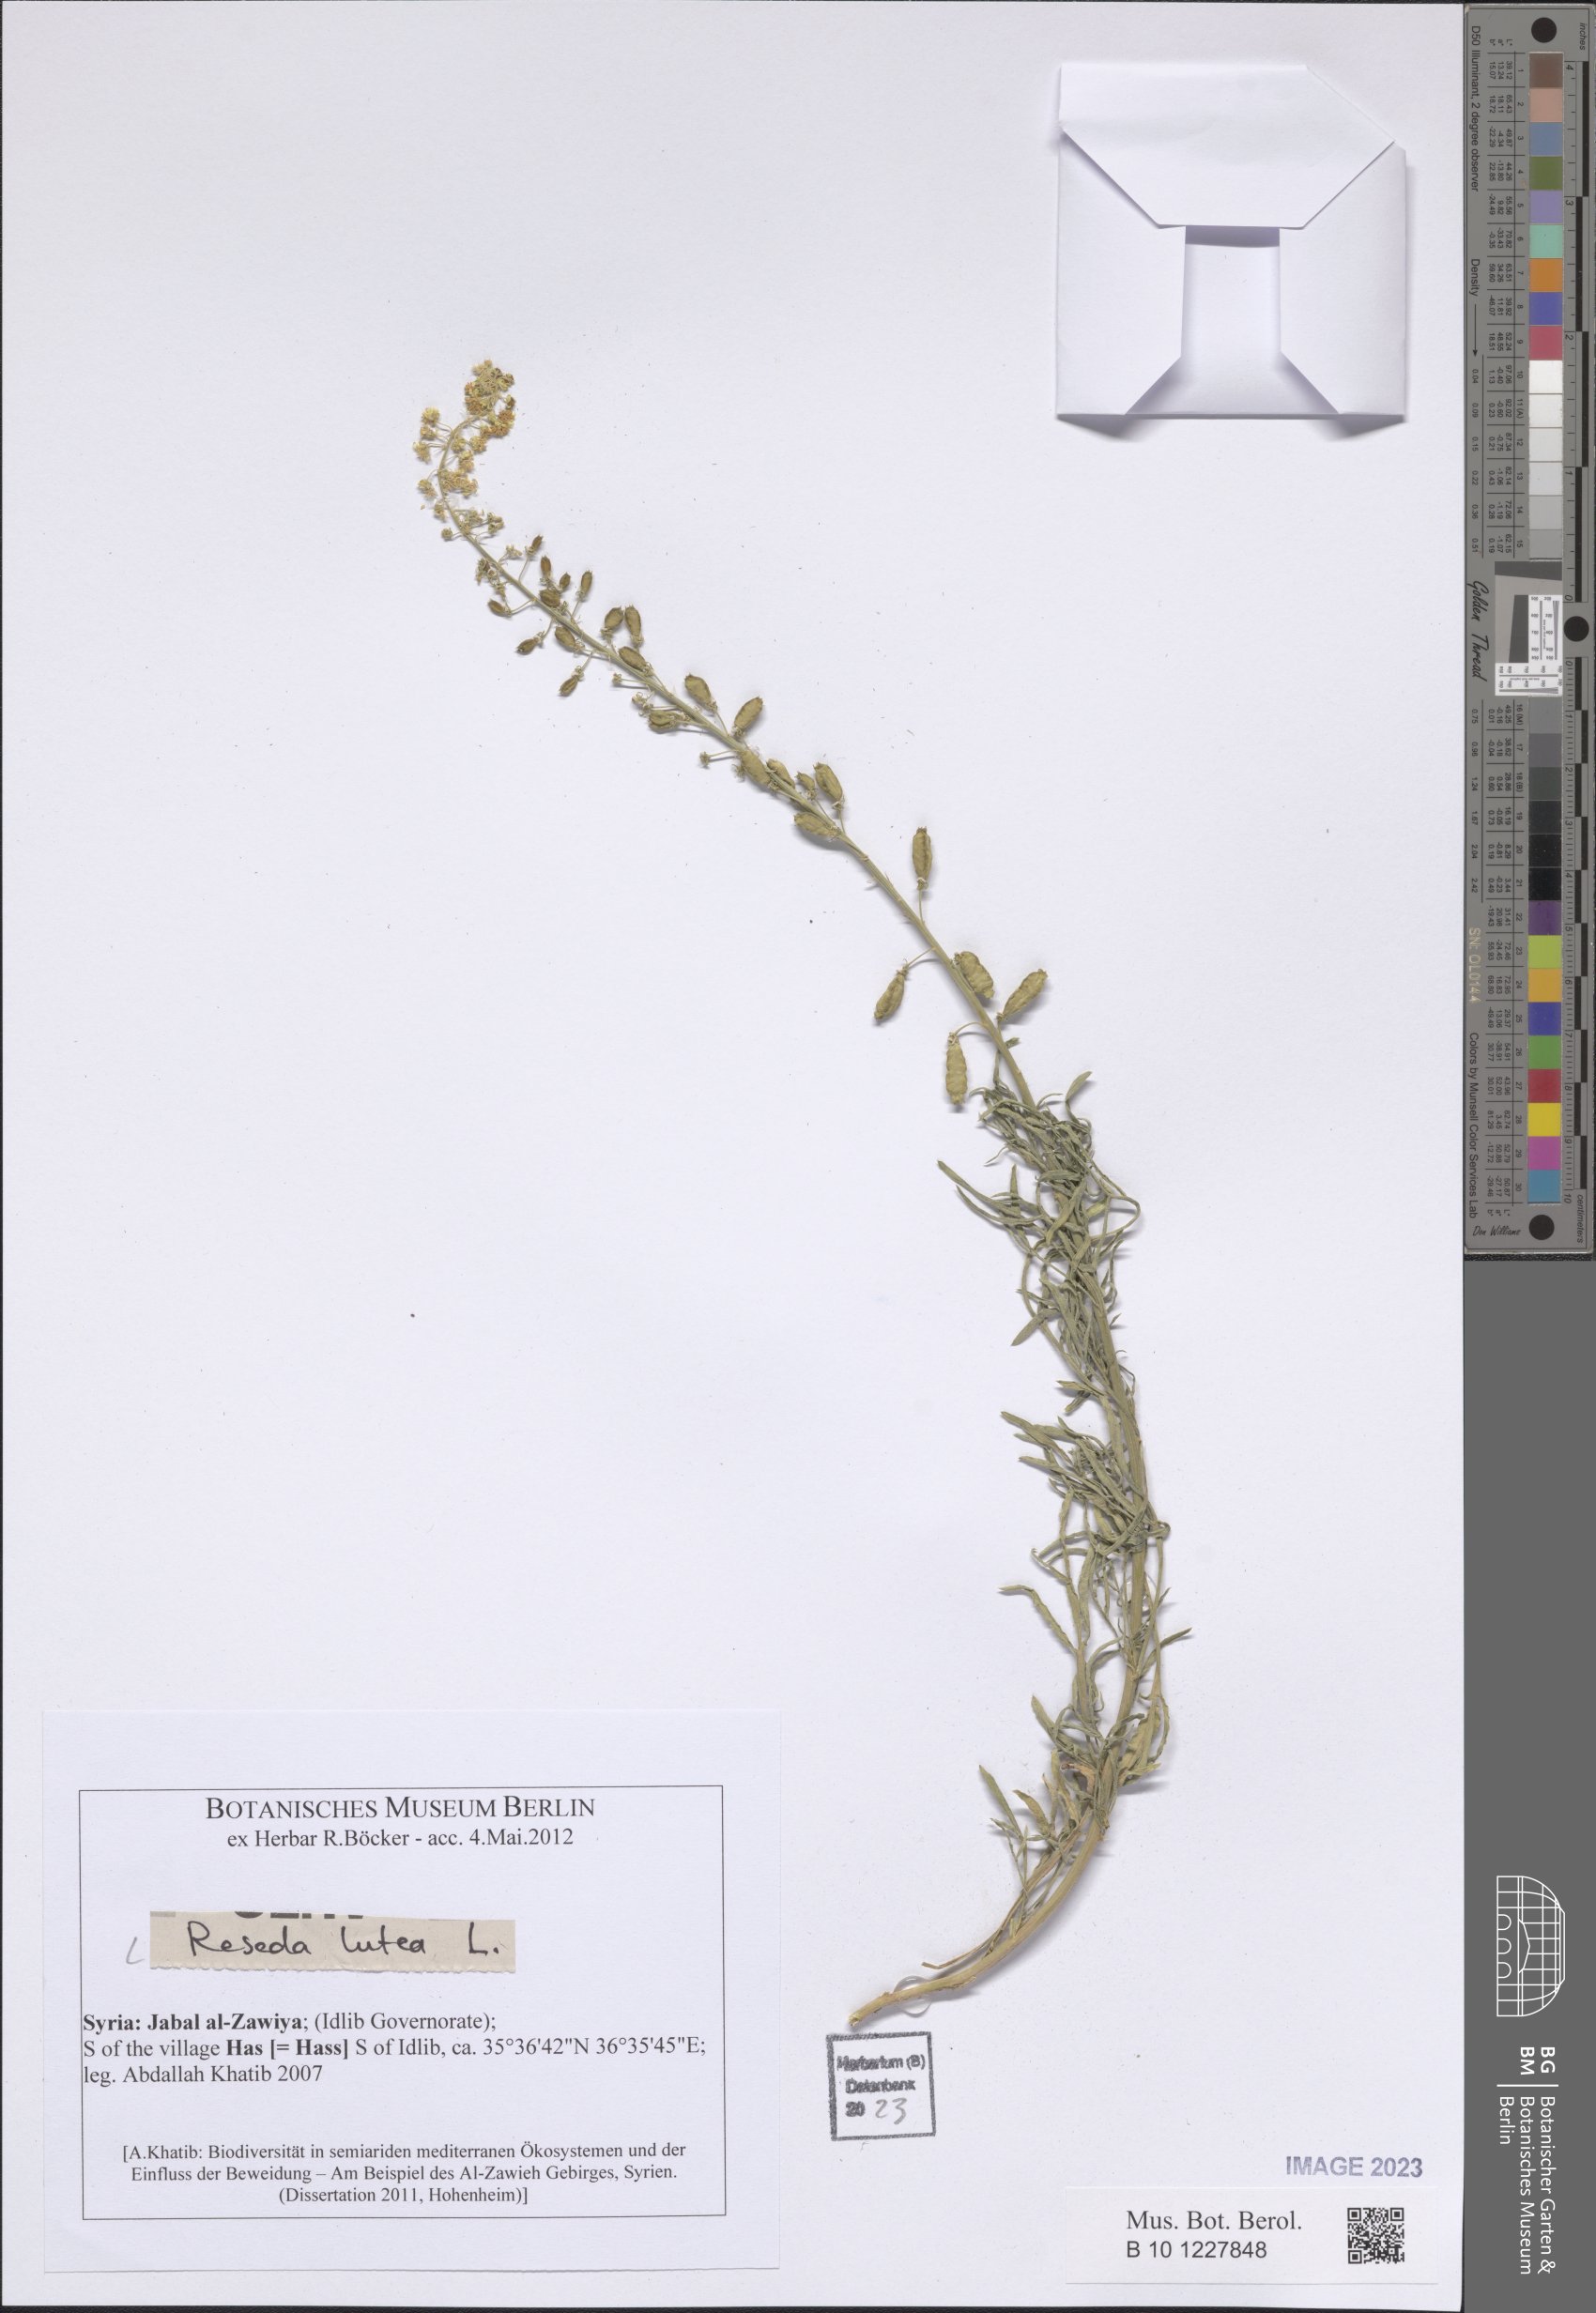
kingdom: Plantae
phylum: Tracheophyta
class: Magnoliopsida
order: Brassicales
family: Resedaceae
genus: Reseda
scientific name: Reseda lutea
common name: Wild mignonette
